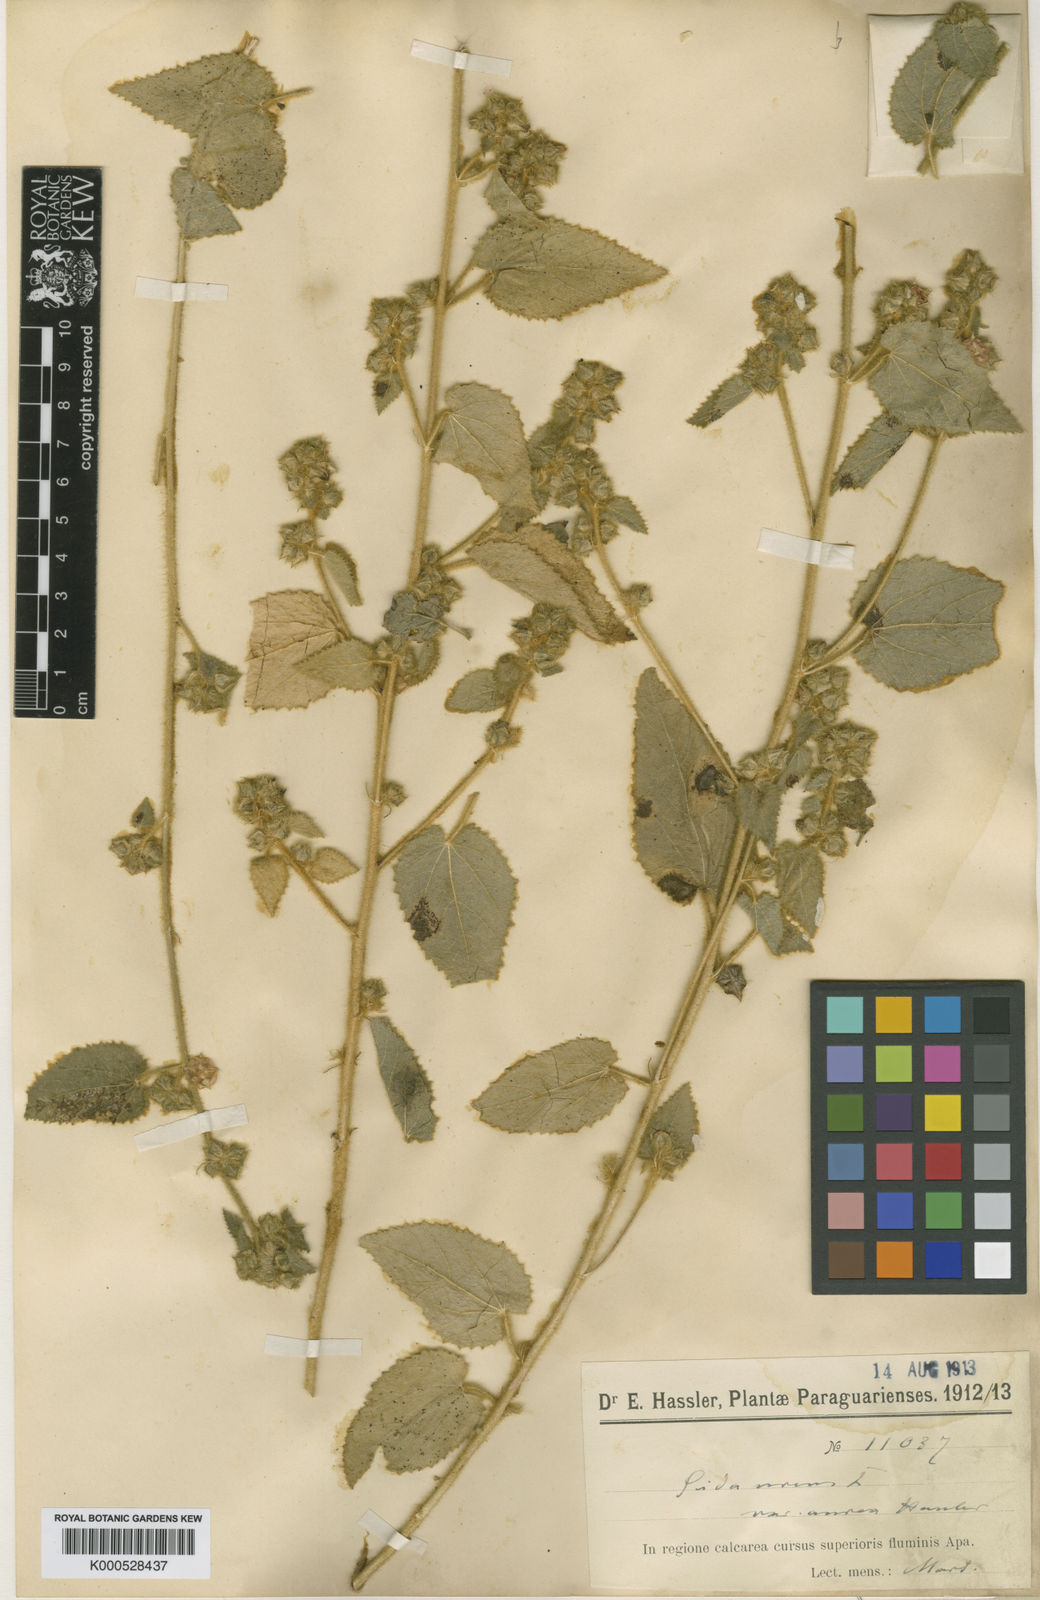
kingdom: Plantae
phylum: Tracheophyta
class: Magnoliopsida
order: Malvales
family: Malvaceae
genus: Sida
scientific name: Sida urens
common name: Tropical fanpetals
